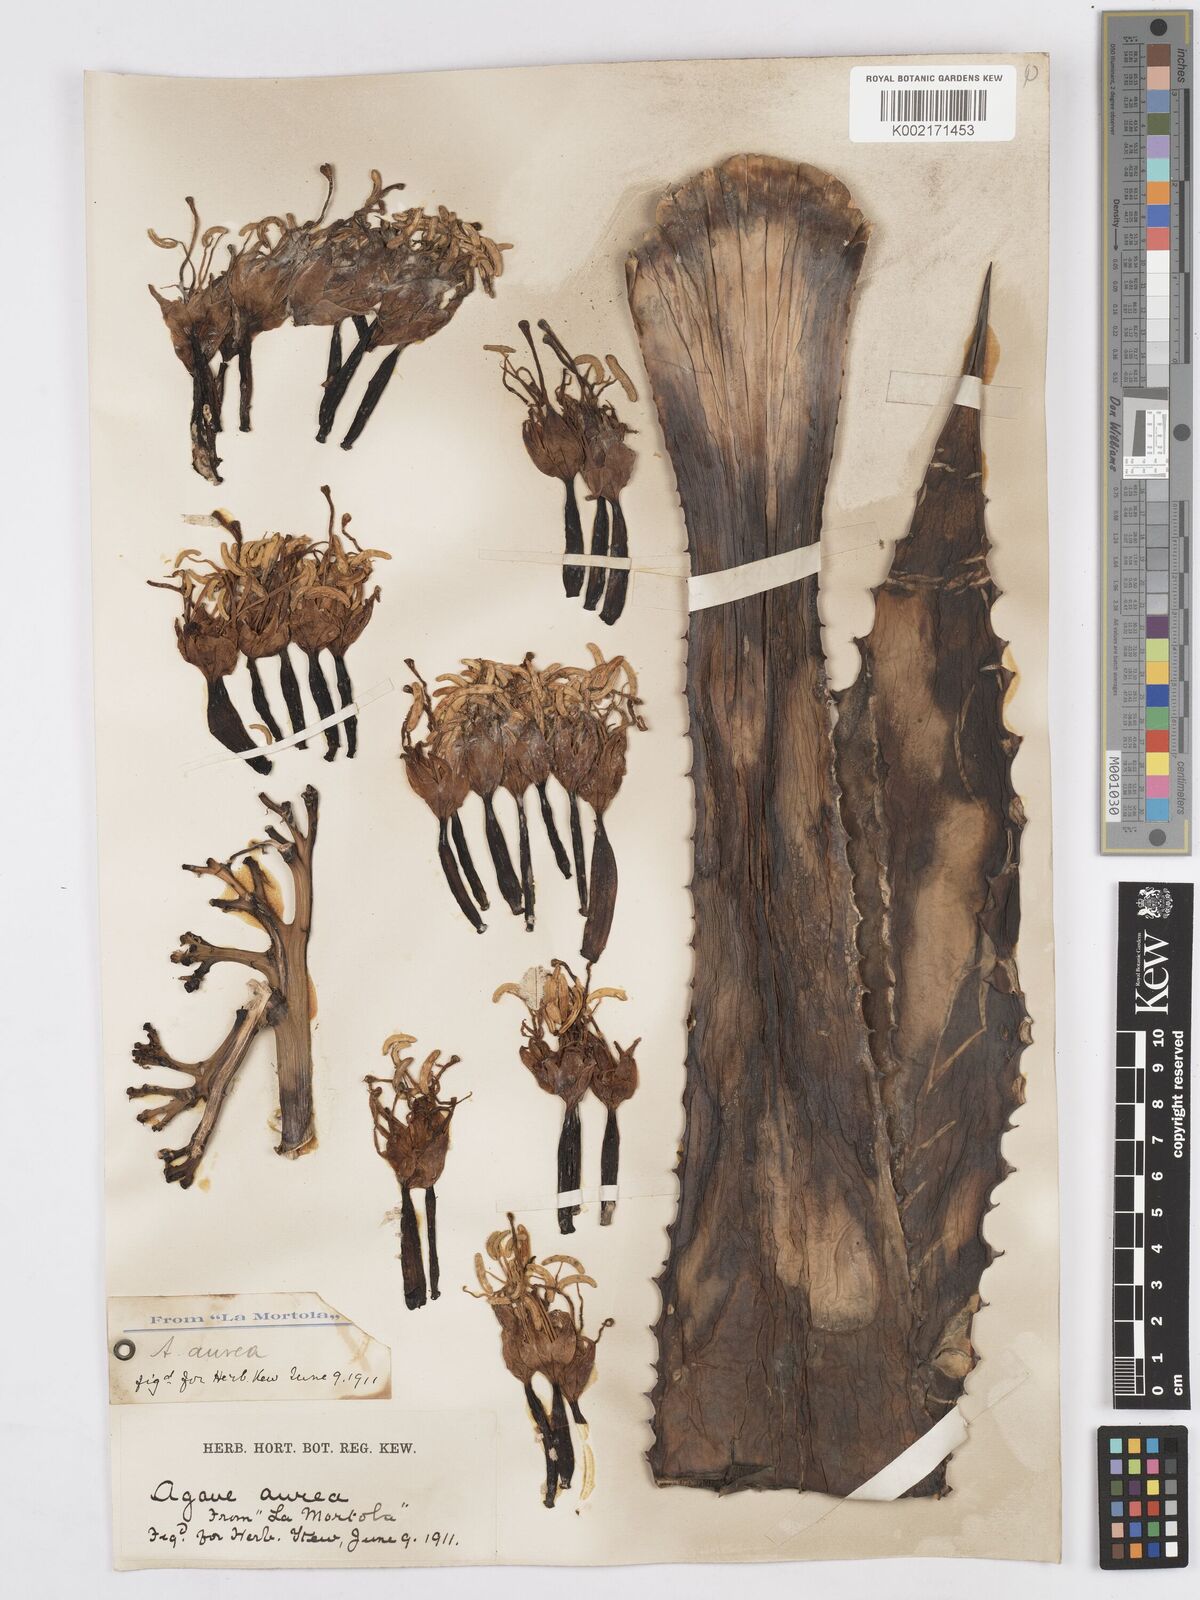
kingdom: Plantae
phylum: Tracheophyta
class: Liliopsida
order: Asparagales
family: Asparagaceae
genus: Agave
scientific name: Agave aurea
